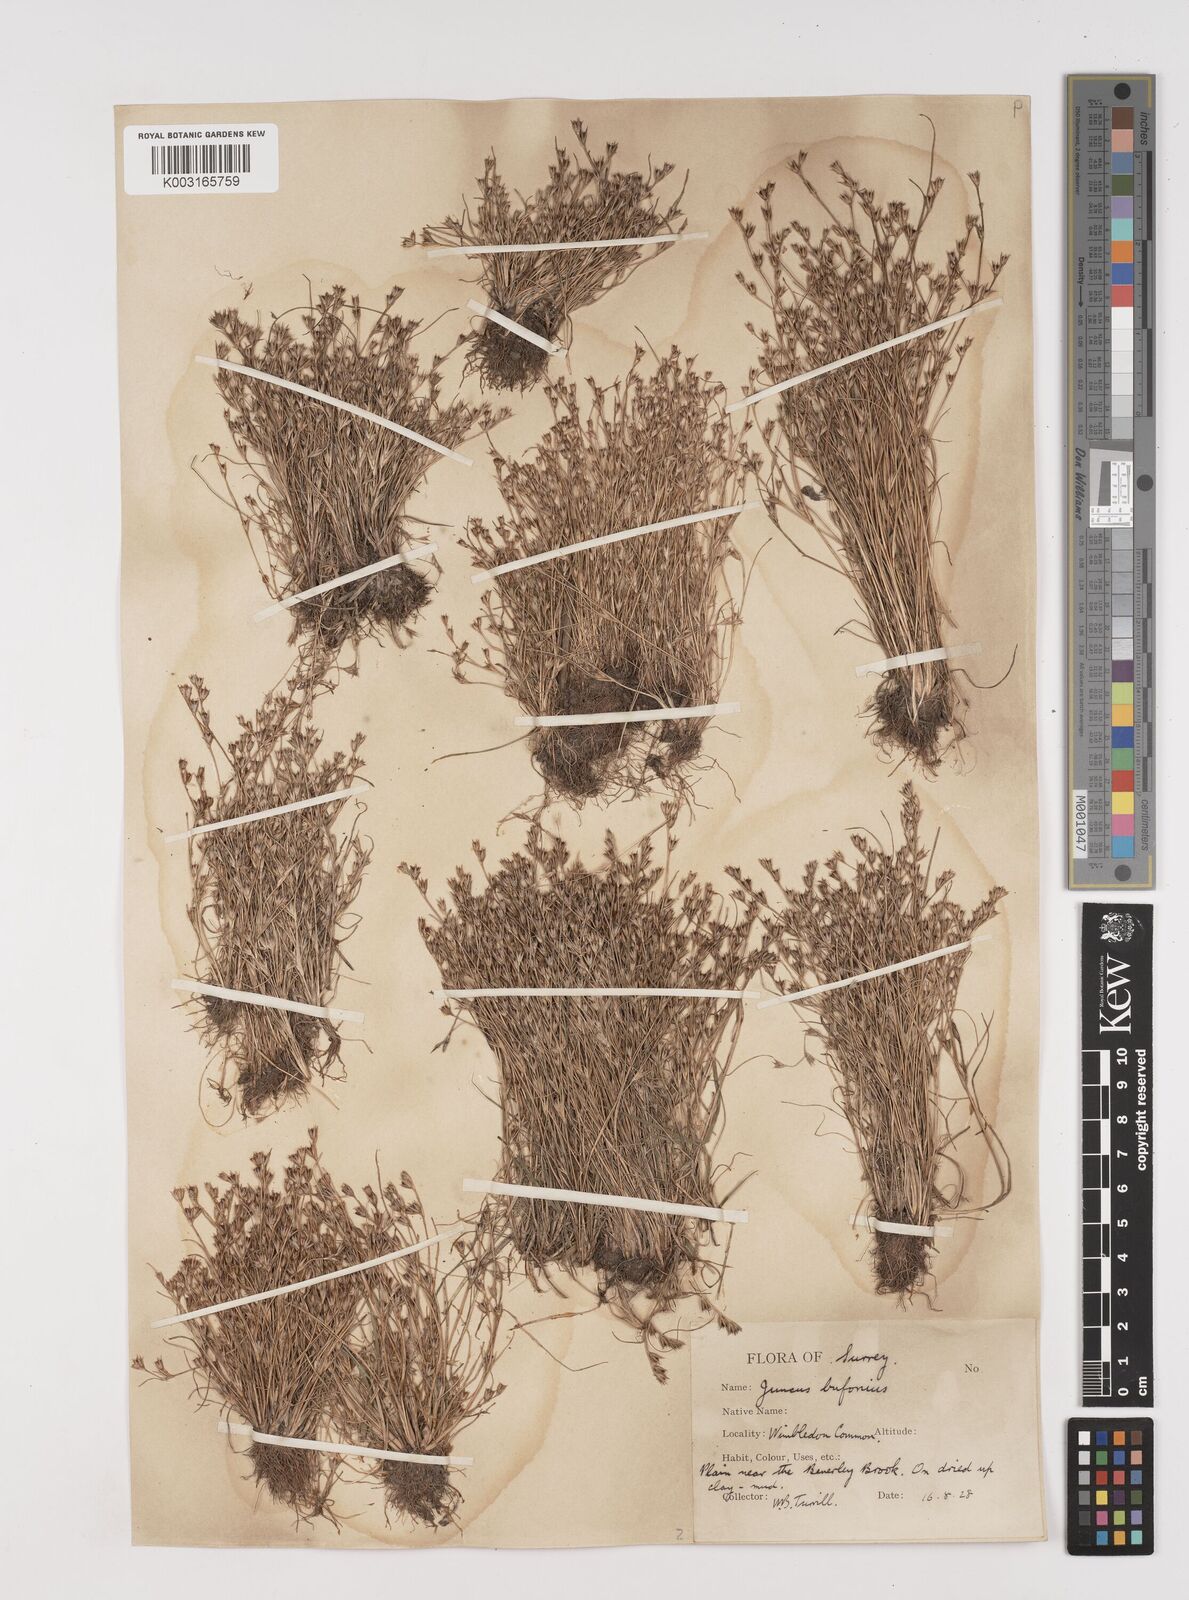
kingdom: Plantae
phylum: Tracheophyta
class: Liliopsida
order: Poales
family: Juncaceae
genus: Juncus
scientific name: Juncus bufonius
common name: Toad rush
